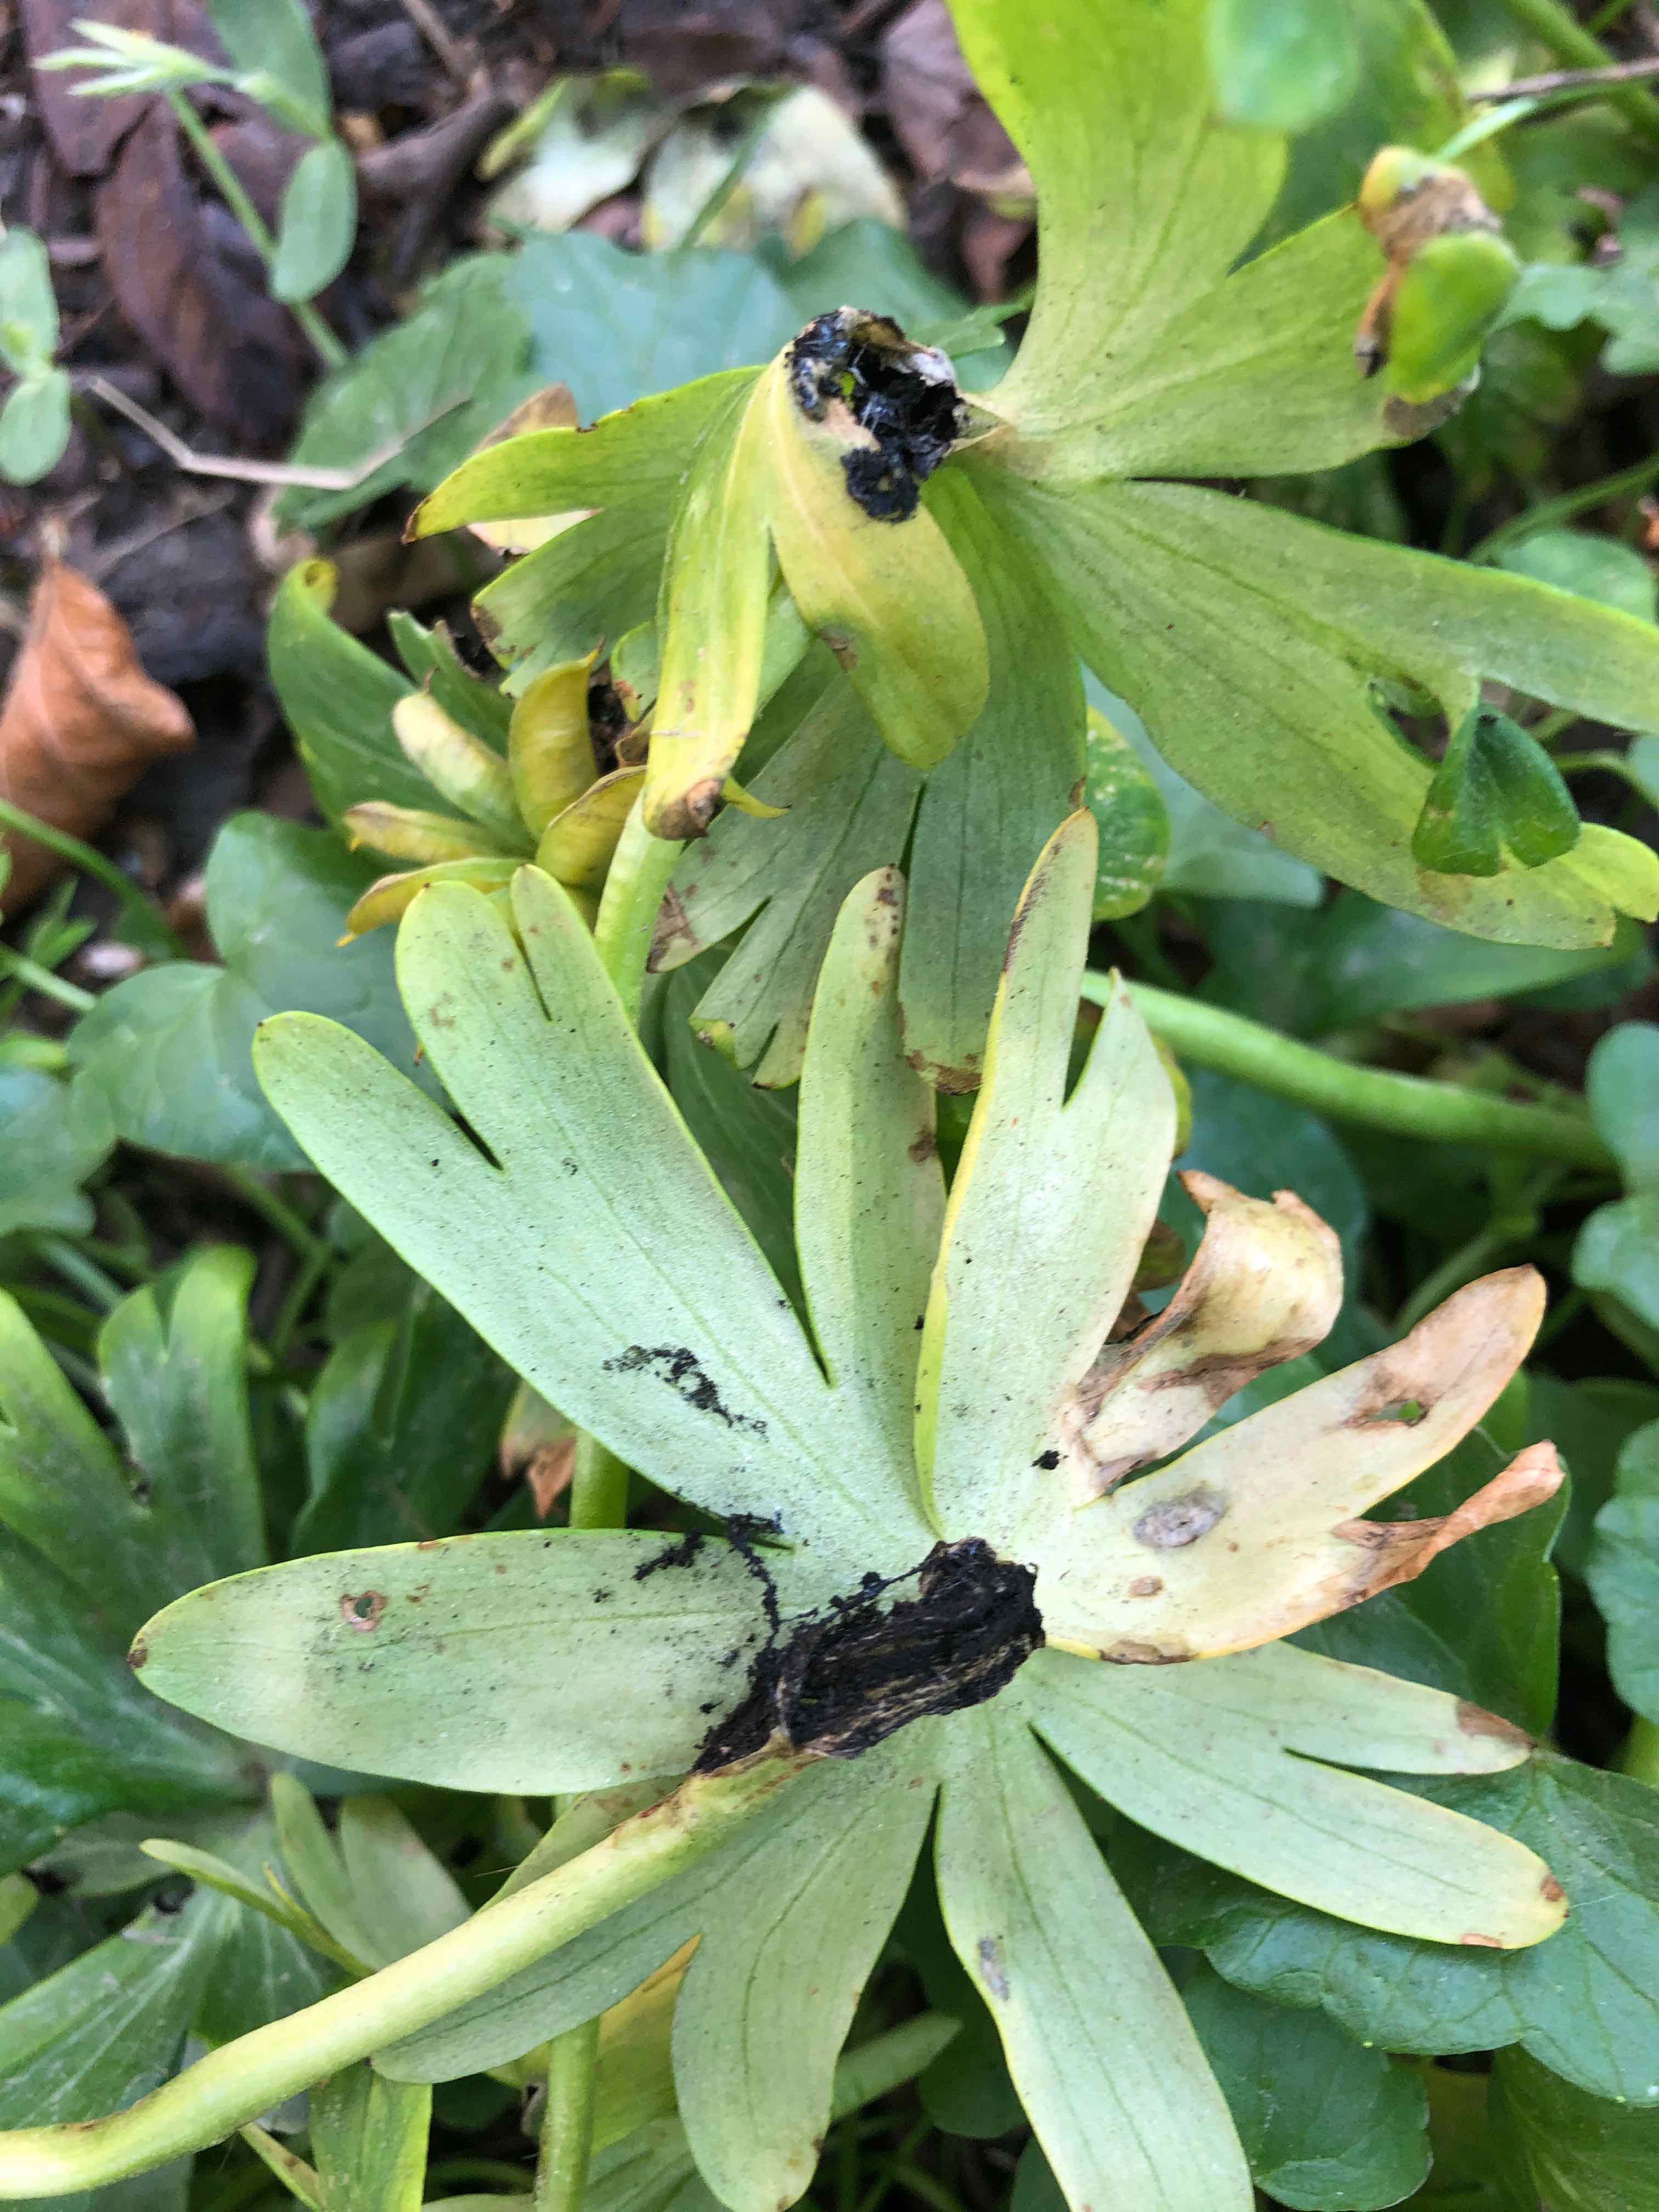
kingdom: Fungi
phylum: Basidiomycota
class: Ustilaginomycetes
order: Urocystidales
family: Urocystidaceae
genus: Urocystis
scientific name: Urocystis eranthidis
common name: erantis-brand
